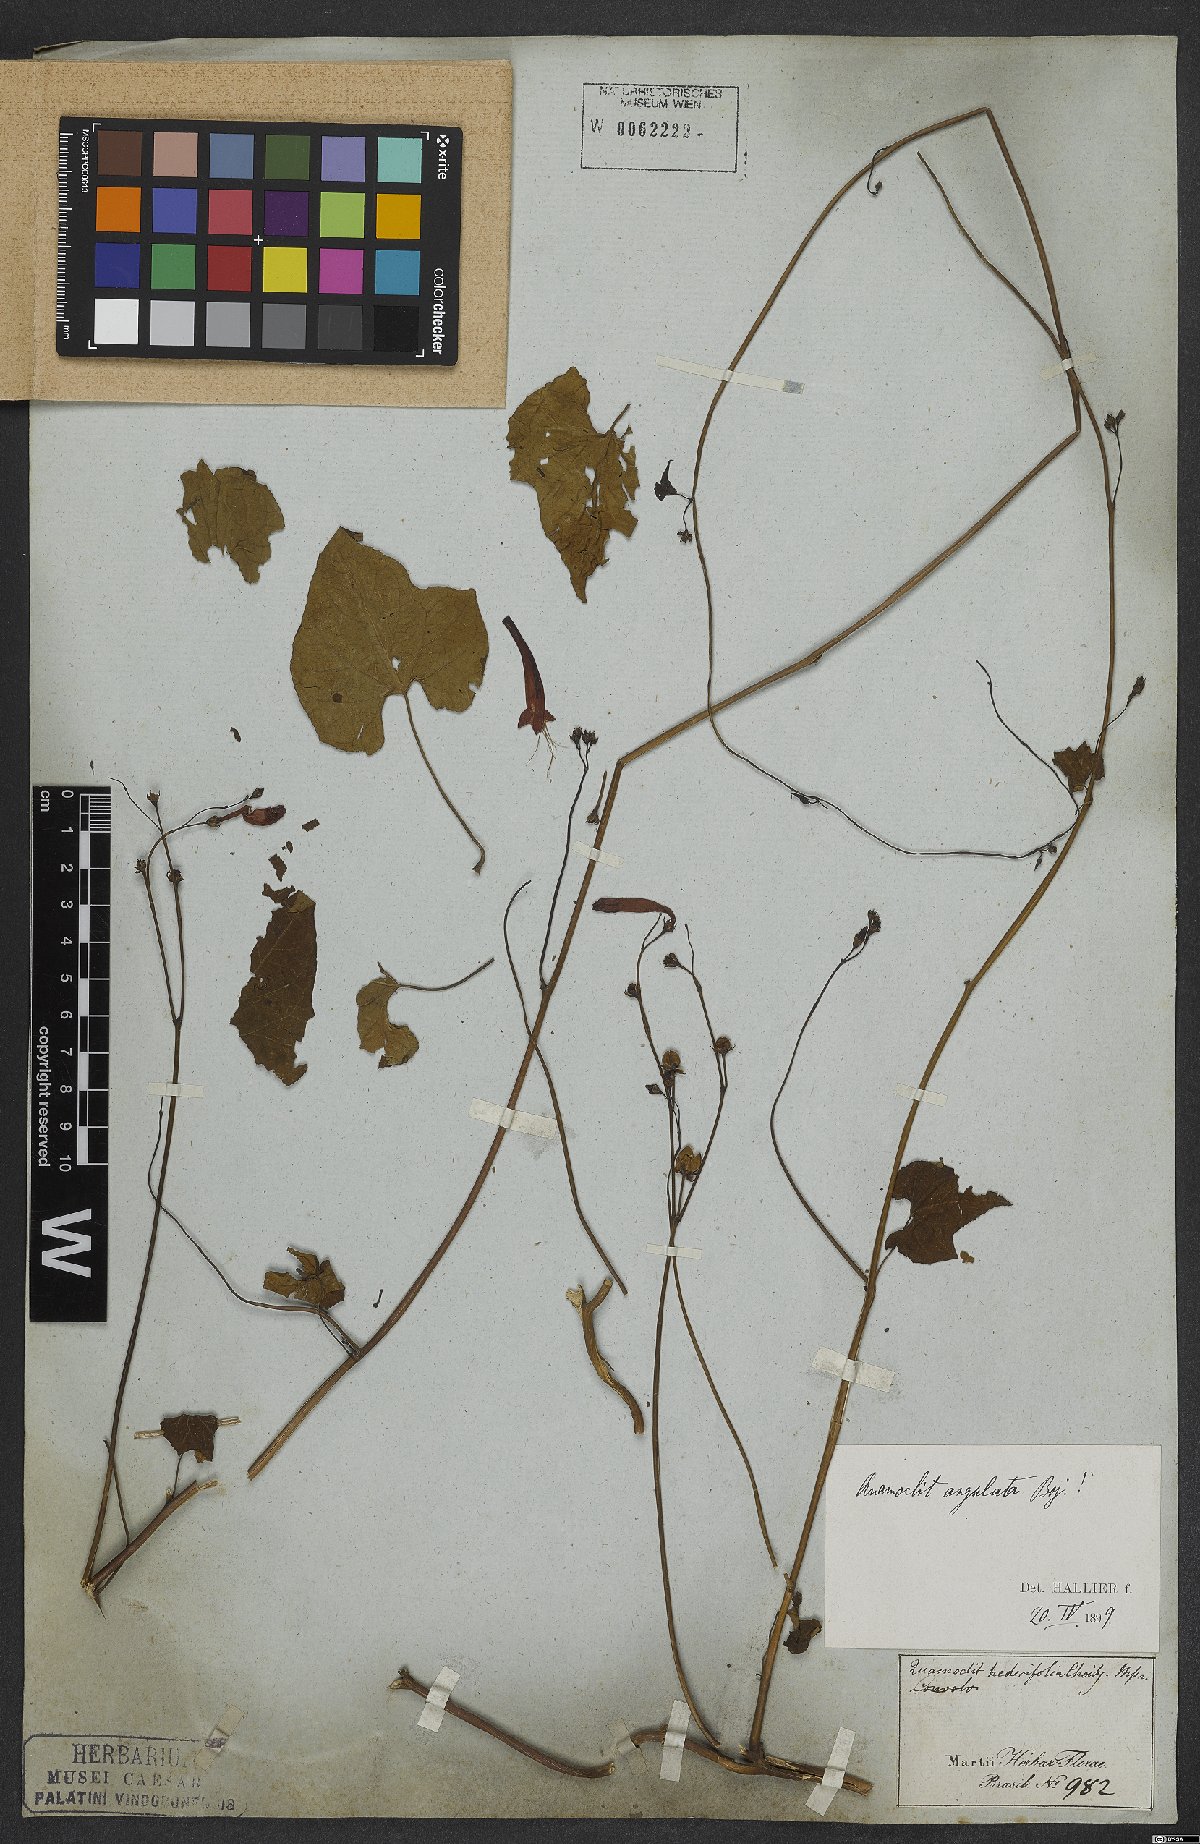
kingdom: Plantae
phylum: Tracheophyta
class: Magnoliopsida
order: Solanales
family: Convolvulaceae
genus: Ipomoea
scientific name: Ipomoea hederifolia
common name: Ivy-leaf morning-glory
